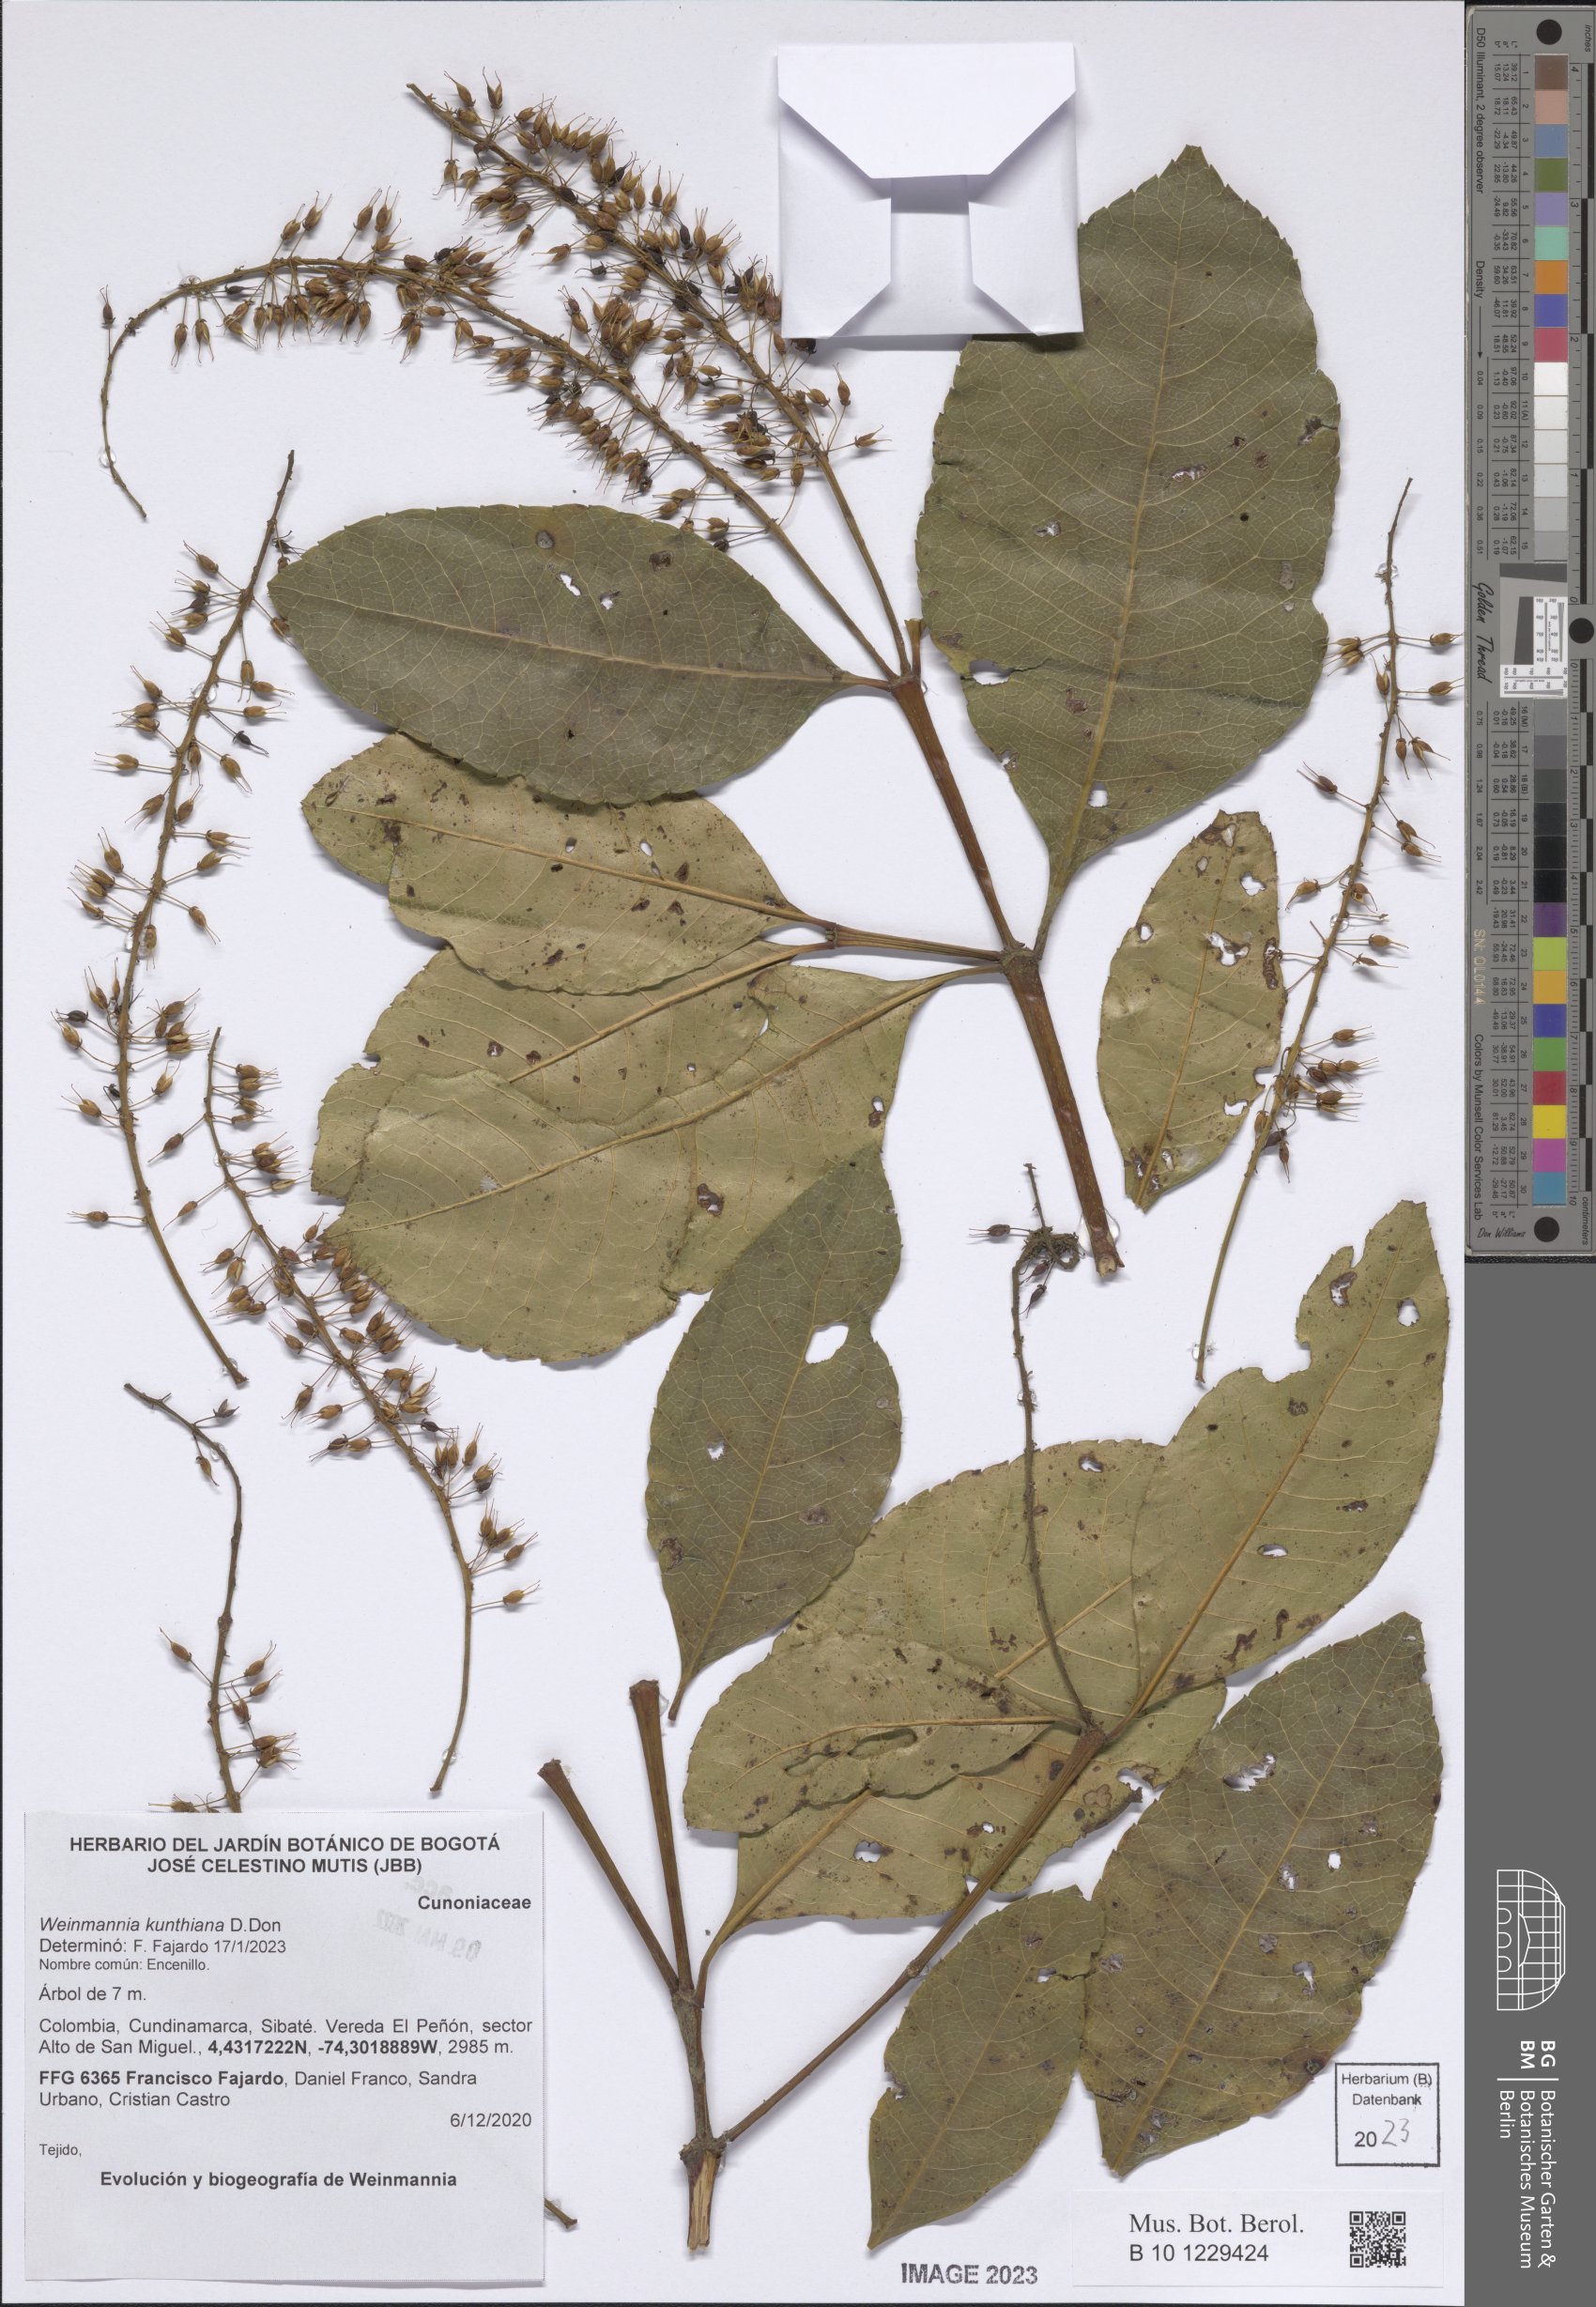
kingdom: Plantae
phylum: Tracheophyta
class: Magnoliopsida
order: Oxalidales
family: Cunoniaceae
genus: Weinmannia
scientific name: Weinmannia kunthiana
